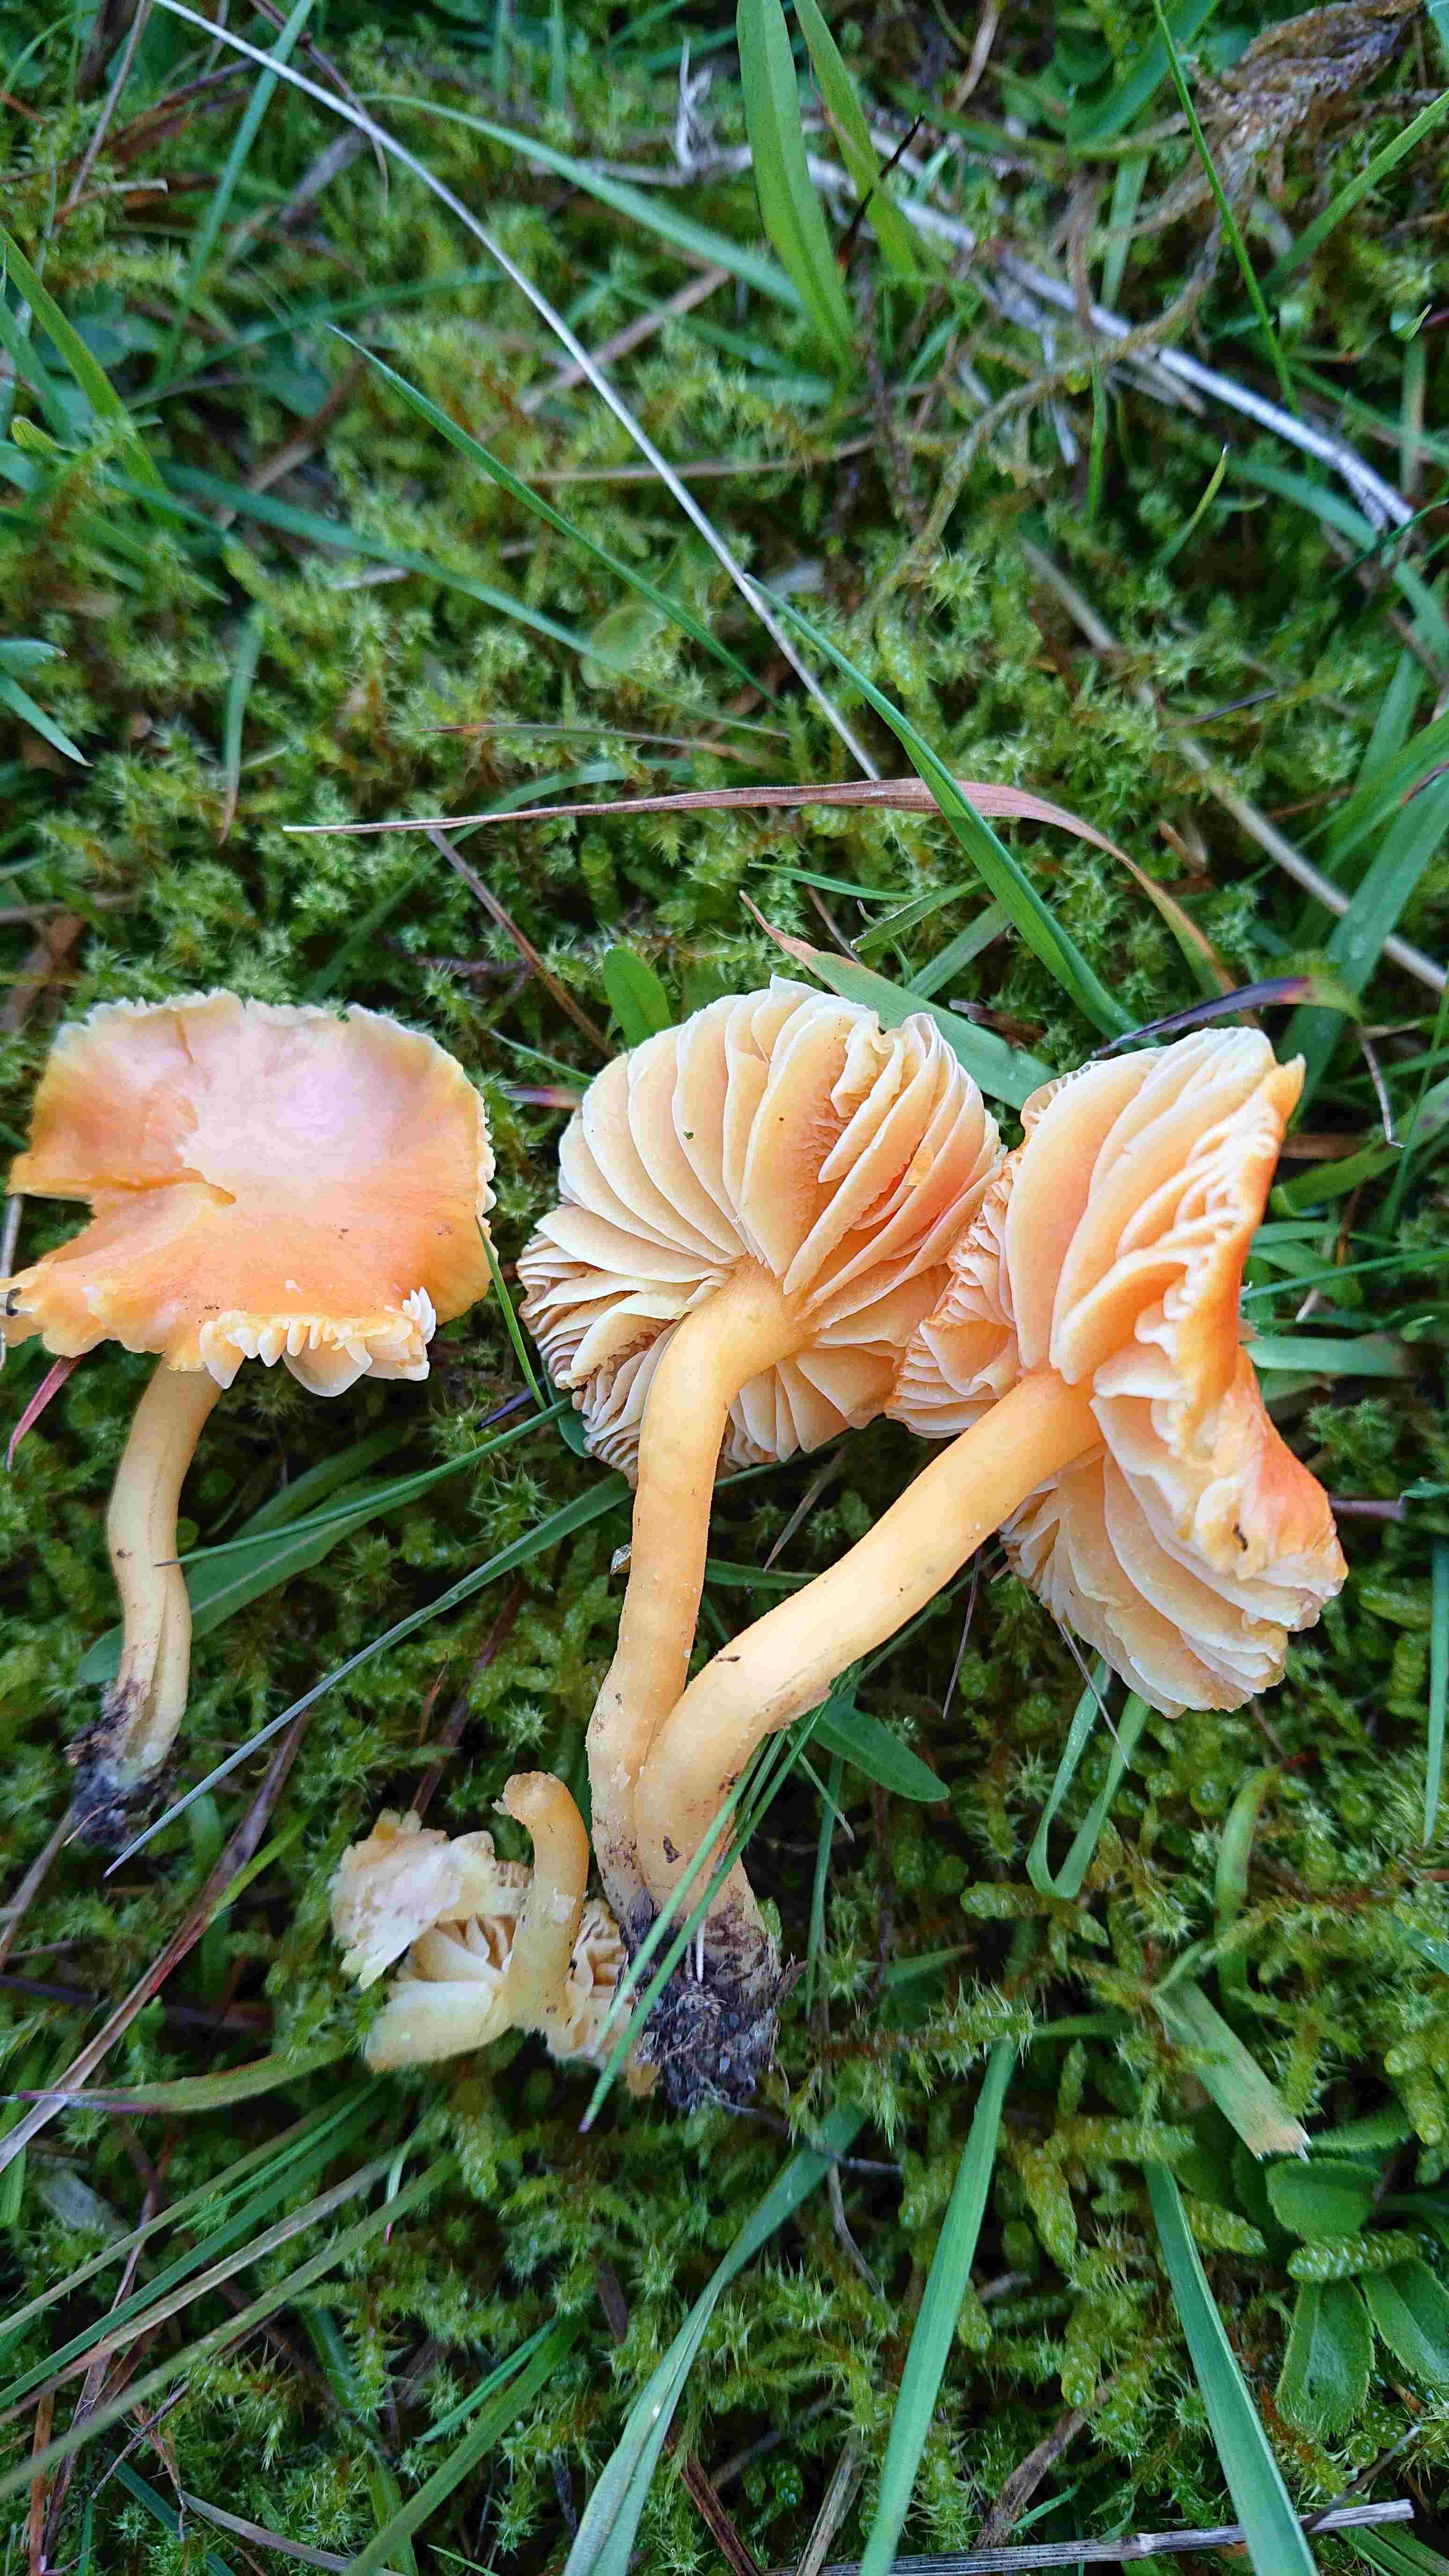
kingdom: Fungi
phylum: Basidiomycota
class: Agaricomycetes
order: Agaricales
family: Hygrophoraceae
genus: Hygrocybe
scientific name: Hygrocybe reidii
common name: honning-vokshat
